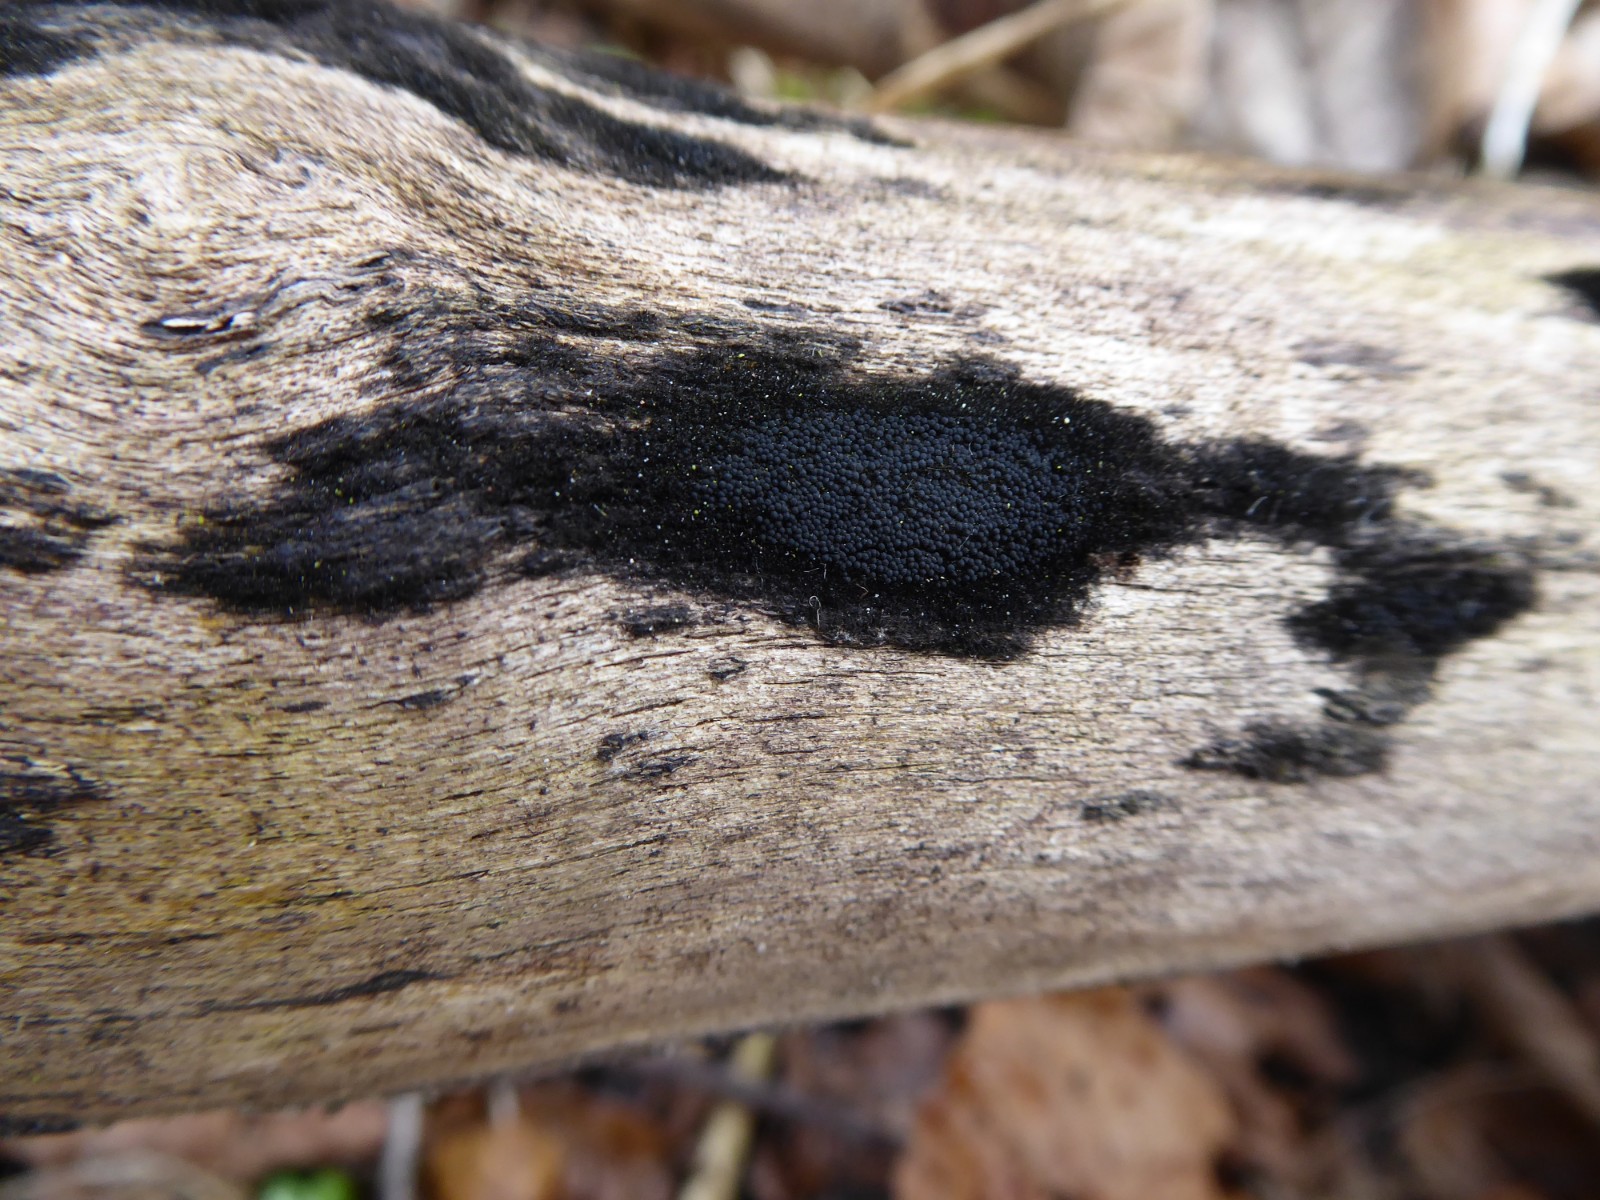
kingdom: Fungi
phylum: Ascomycota
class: Sordariomycetes
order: Coronophorales
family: Chaetosphaerellaceae
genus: Chaetosphaerella
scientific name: Chaetosphaerella phaeostroma
